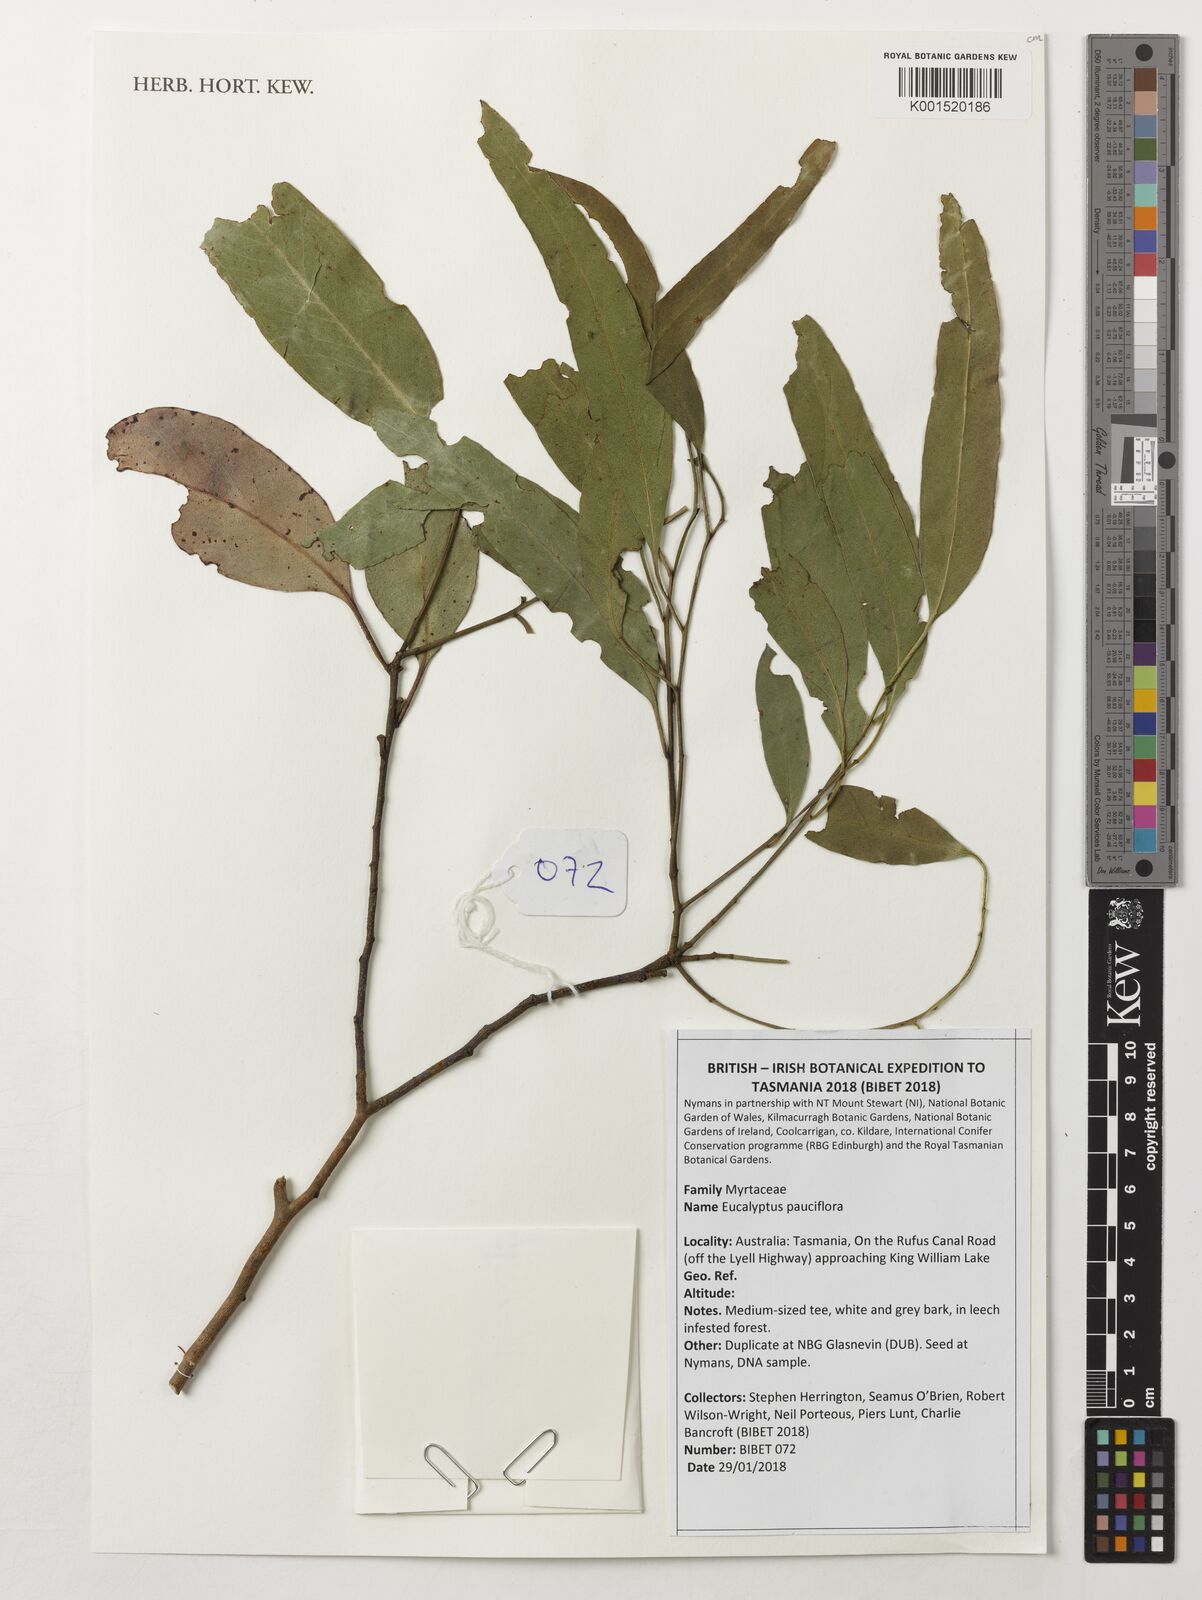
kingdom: Plantae
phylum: Tracheophyta
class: Magnoliopsida
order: Myrtales
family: Myrtaceae
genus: Eucalyptus
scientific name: Eucalyptus pauciflora
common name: Snow gum
